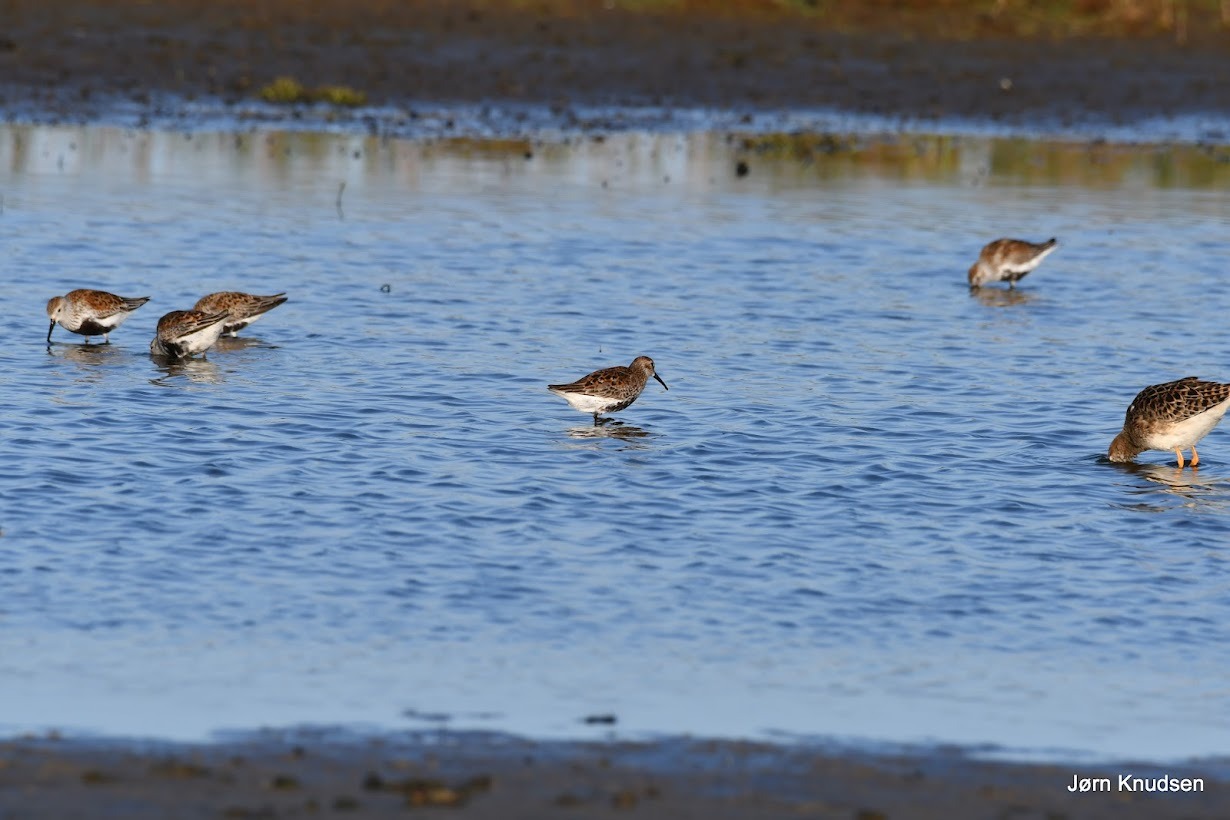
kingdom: Animalia
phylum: Chordata
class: Aves
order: Charadriiformes
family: Scolopacidae
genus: Calidris
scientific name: Calidris alpina
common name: Almindelig ryle
